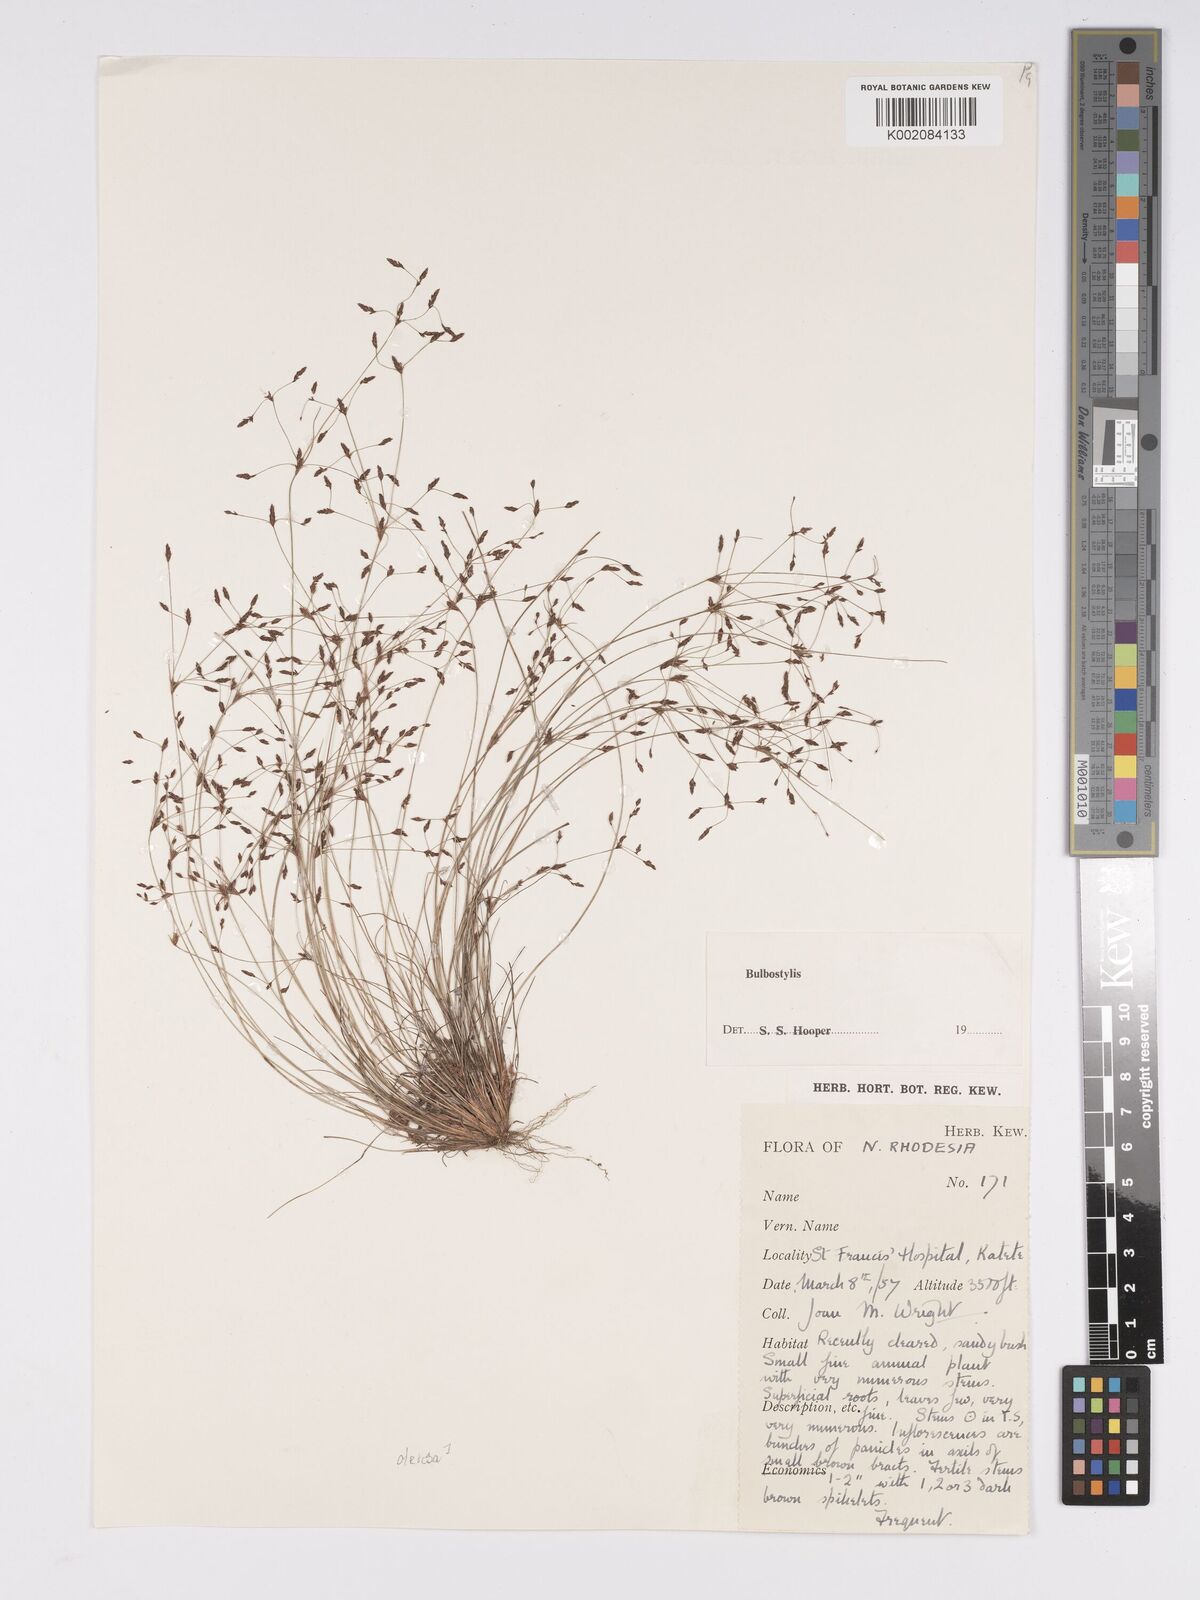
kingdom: Plantae
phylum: Tracheophyta
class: Liliopsida
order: Poales
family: Cyperaceae
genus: Bulbostylis
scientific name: Bulbostylis
